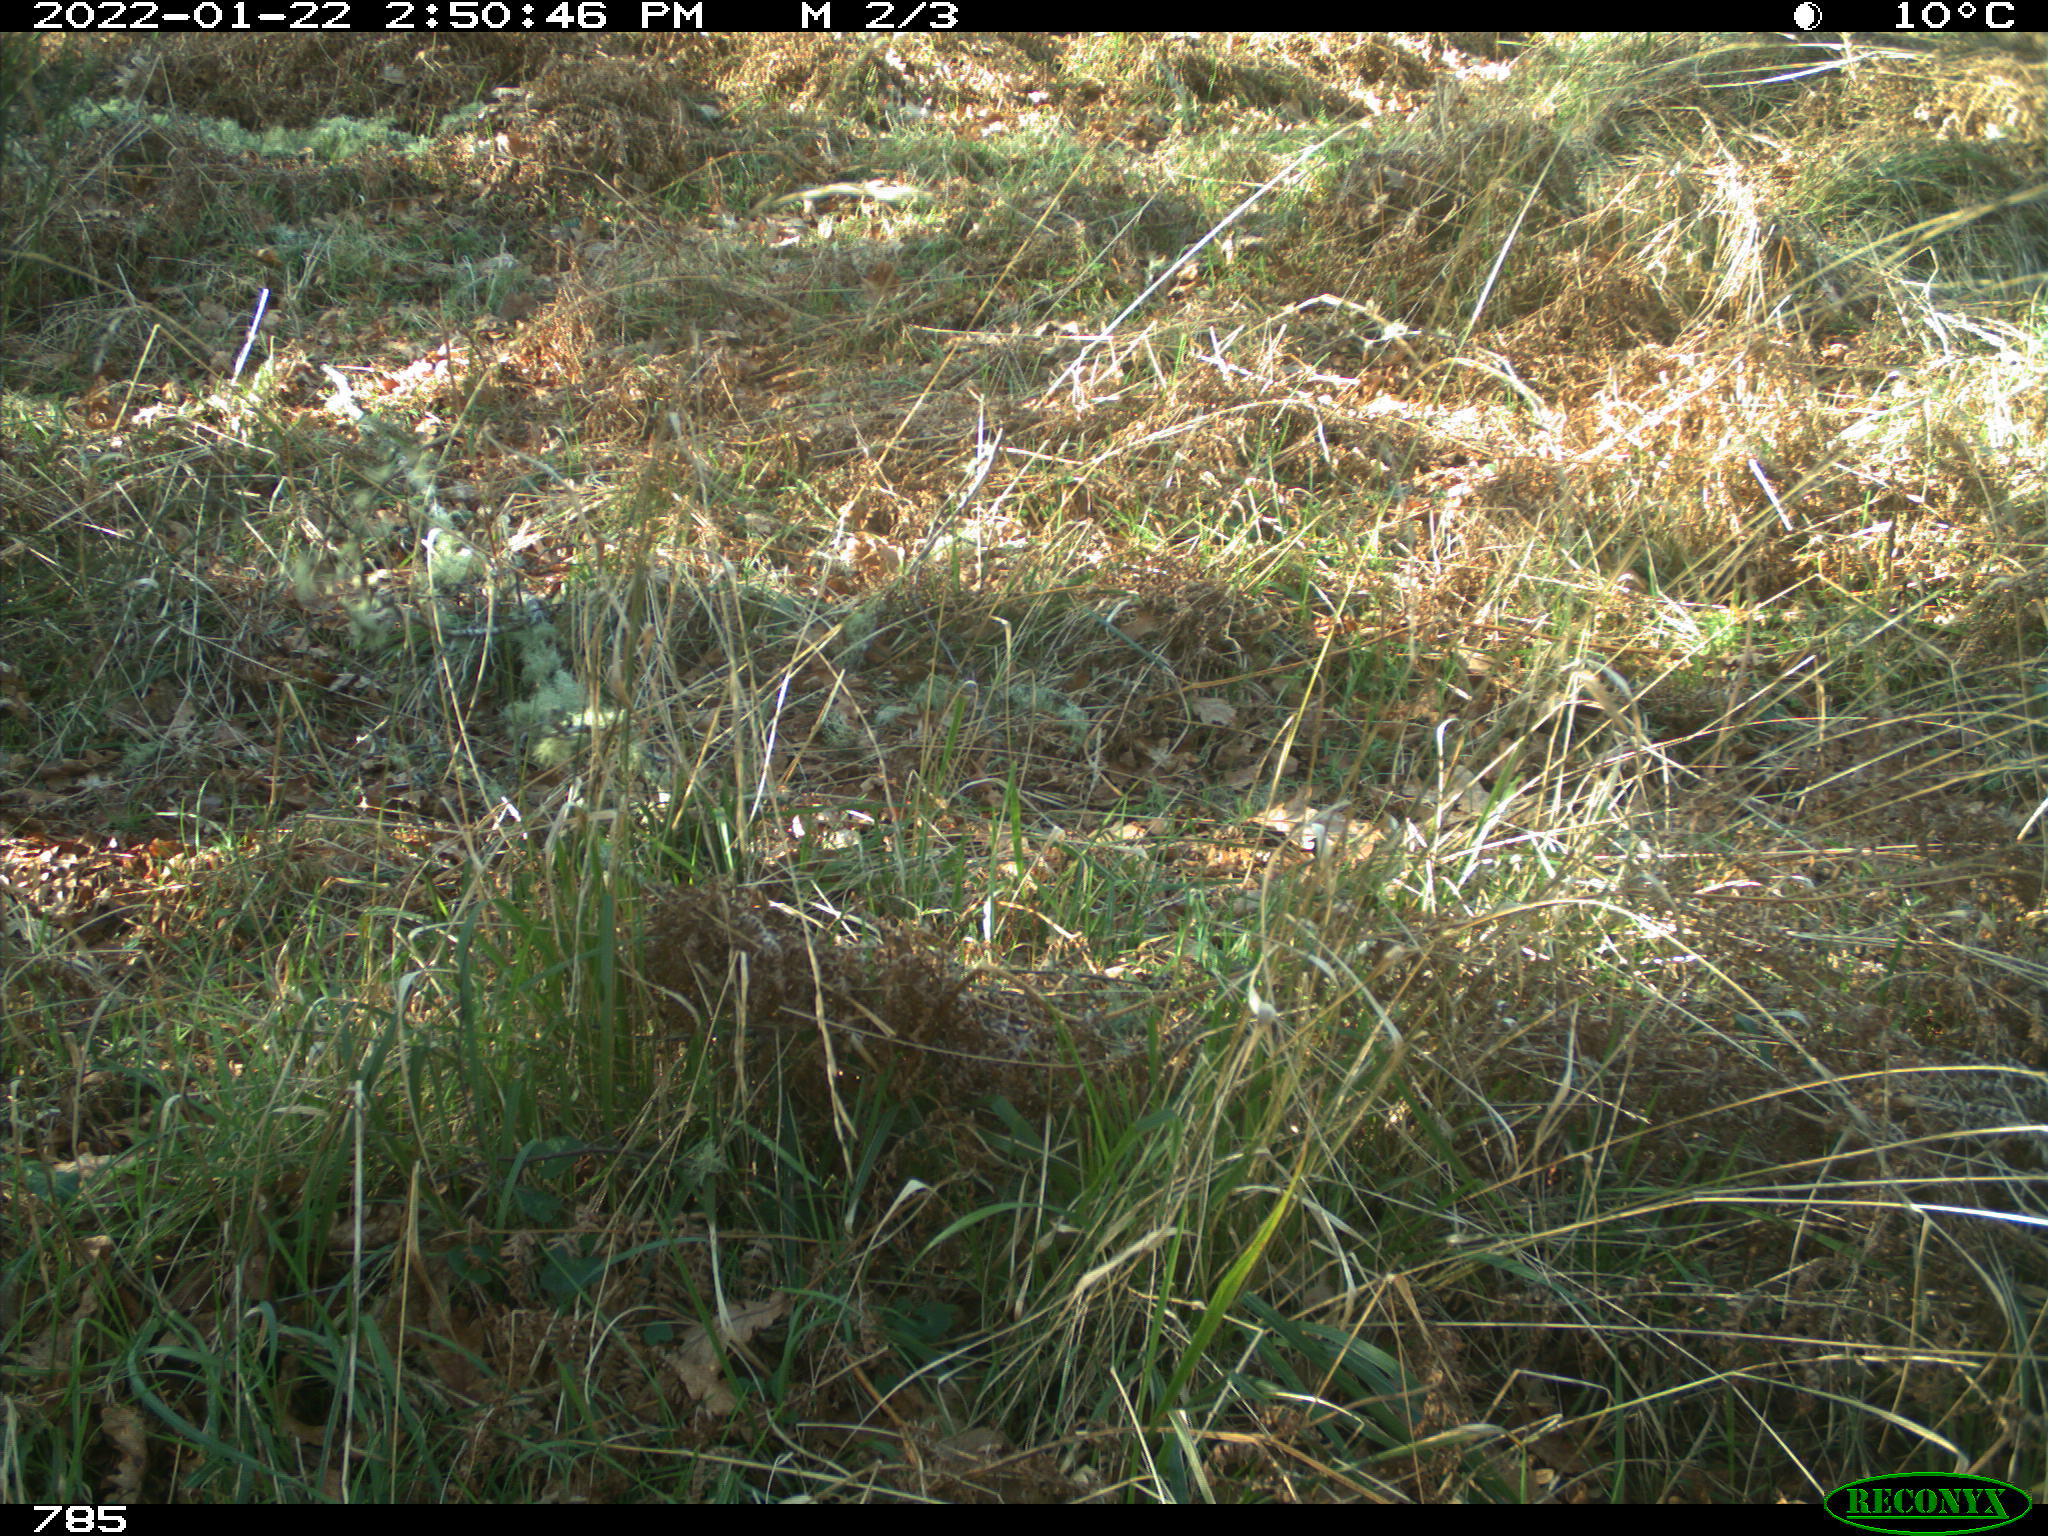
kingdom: Animalia
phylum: Chordata
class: Mammalia
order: Artiodactyla
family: Bovidae
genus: Bos
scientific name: Bos taurus
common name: Domesticated cattle
